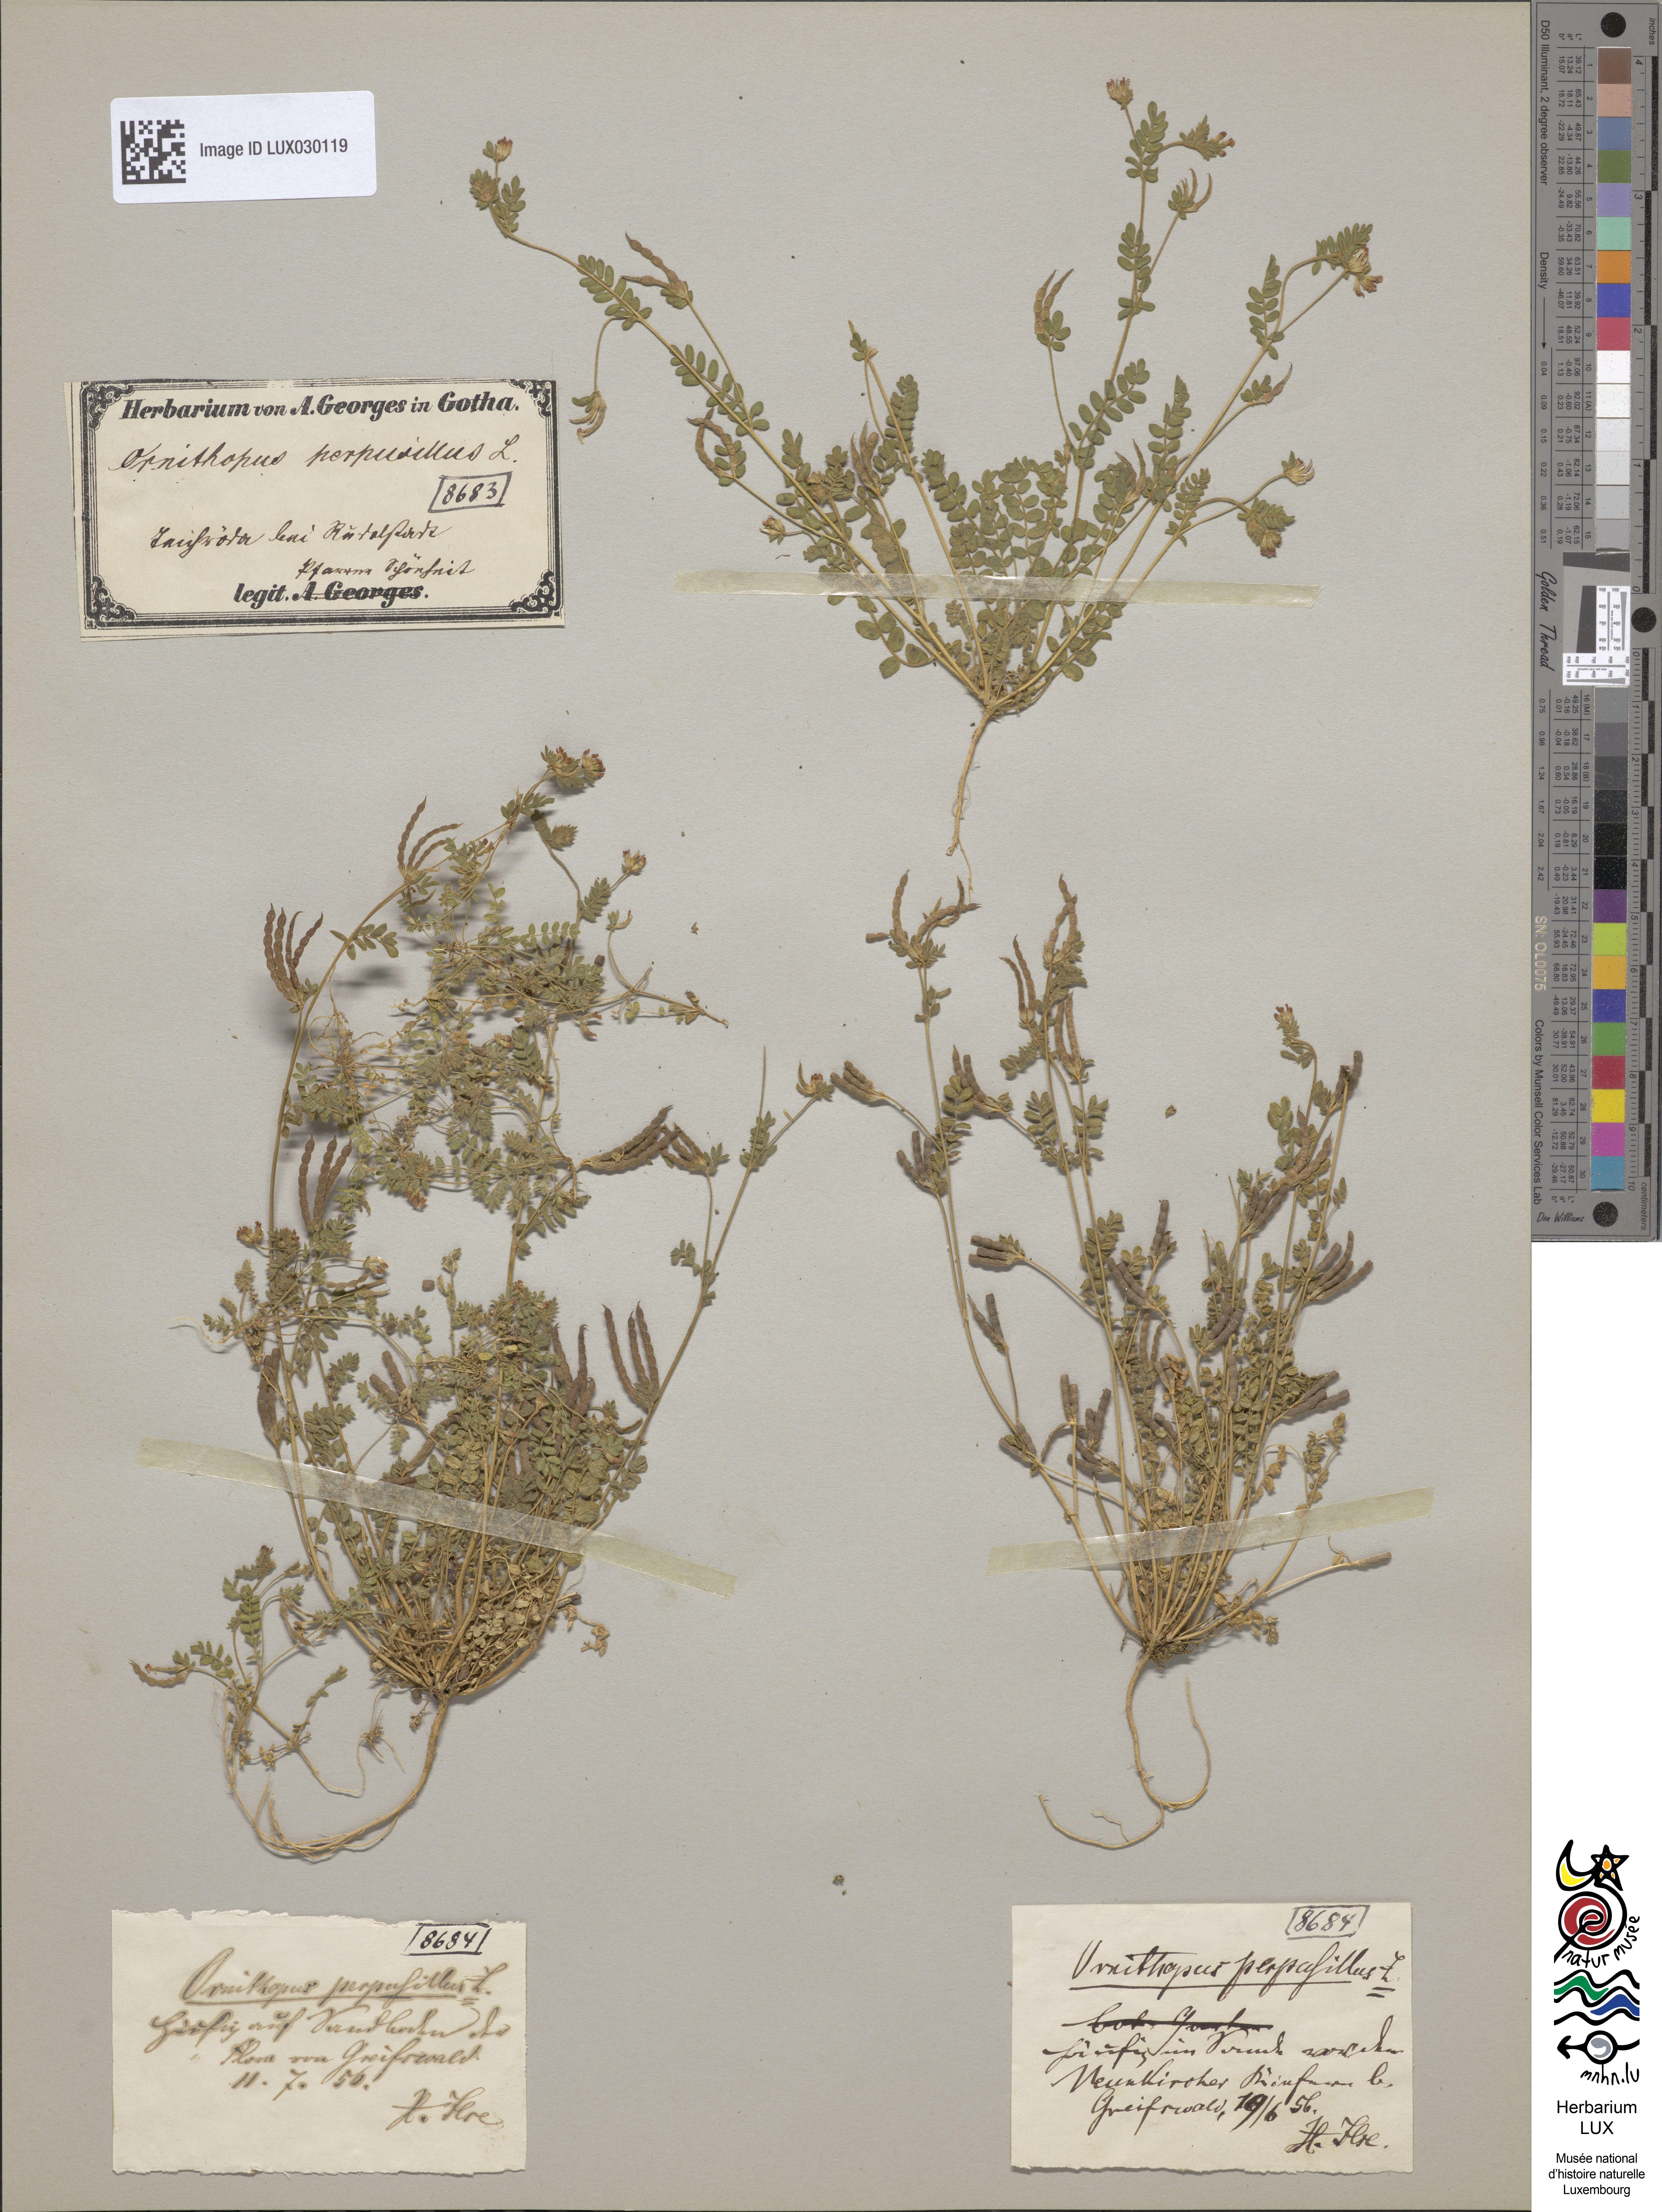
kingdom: Plantae
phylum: Tracheophyta
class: Magnoliopsida
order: Fabales
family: Fabaceae
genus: Ornithopus
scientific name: Ornithopus perpusillus
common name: Bird's-foot
